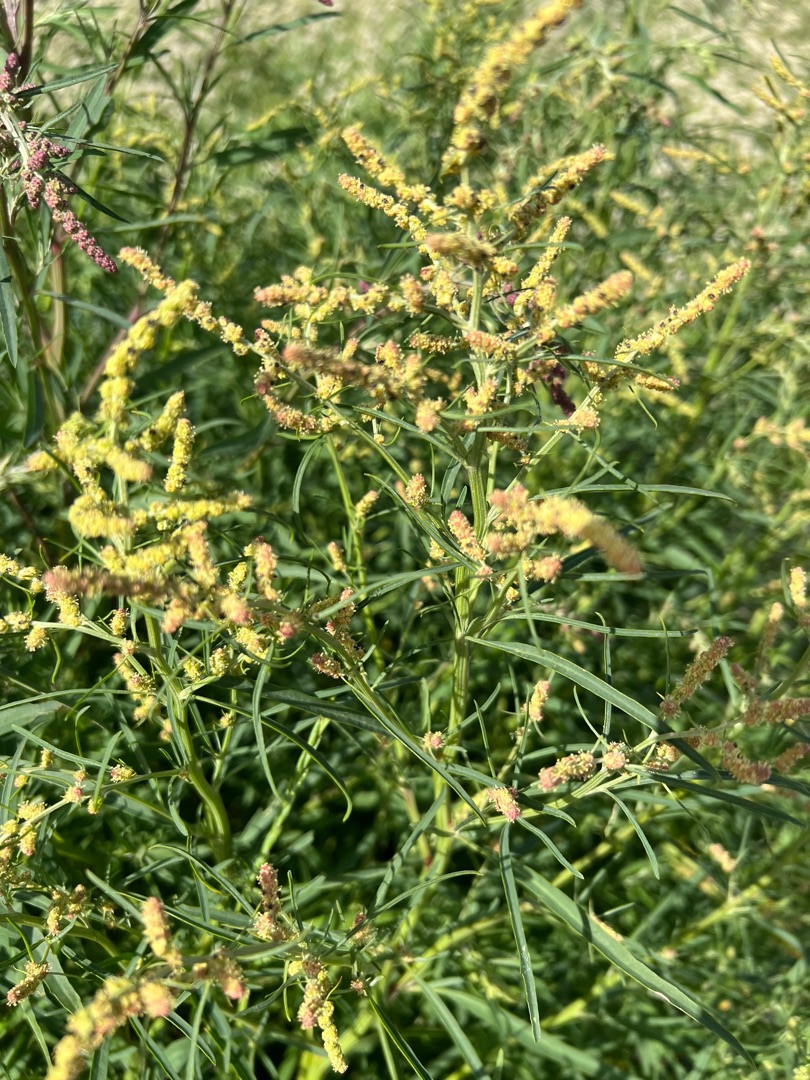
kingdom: Plantae
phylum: Tracheophyta
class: Magnoliopsida
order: Caryophyllales
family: Amaranthaceae
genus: Atriplex
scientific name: Atriplex littoralis
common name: Strand-mælde
